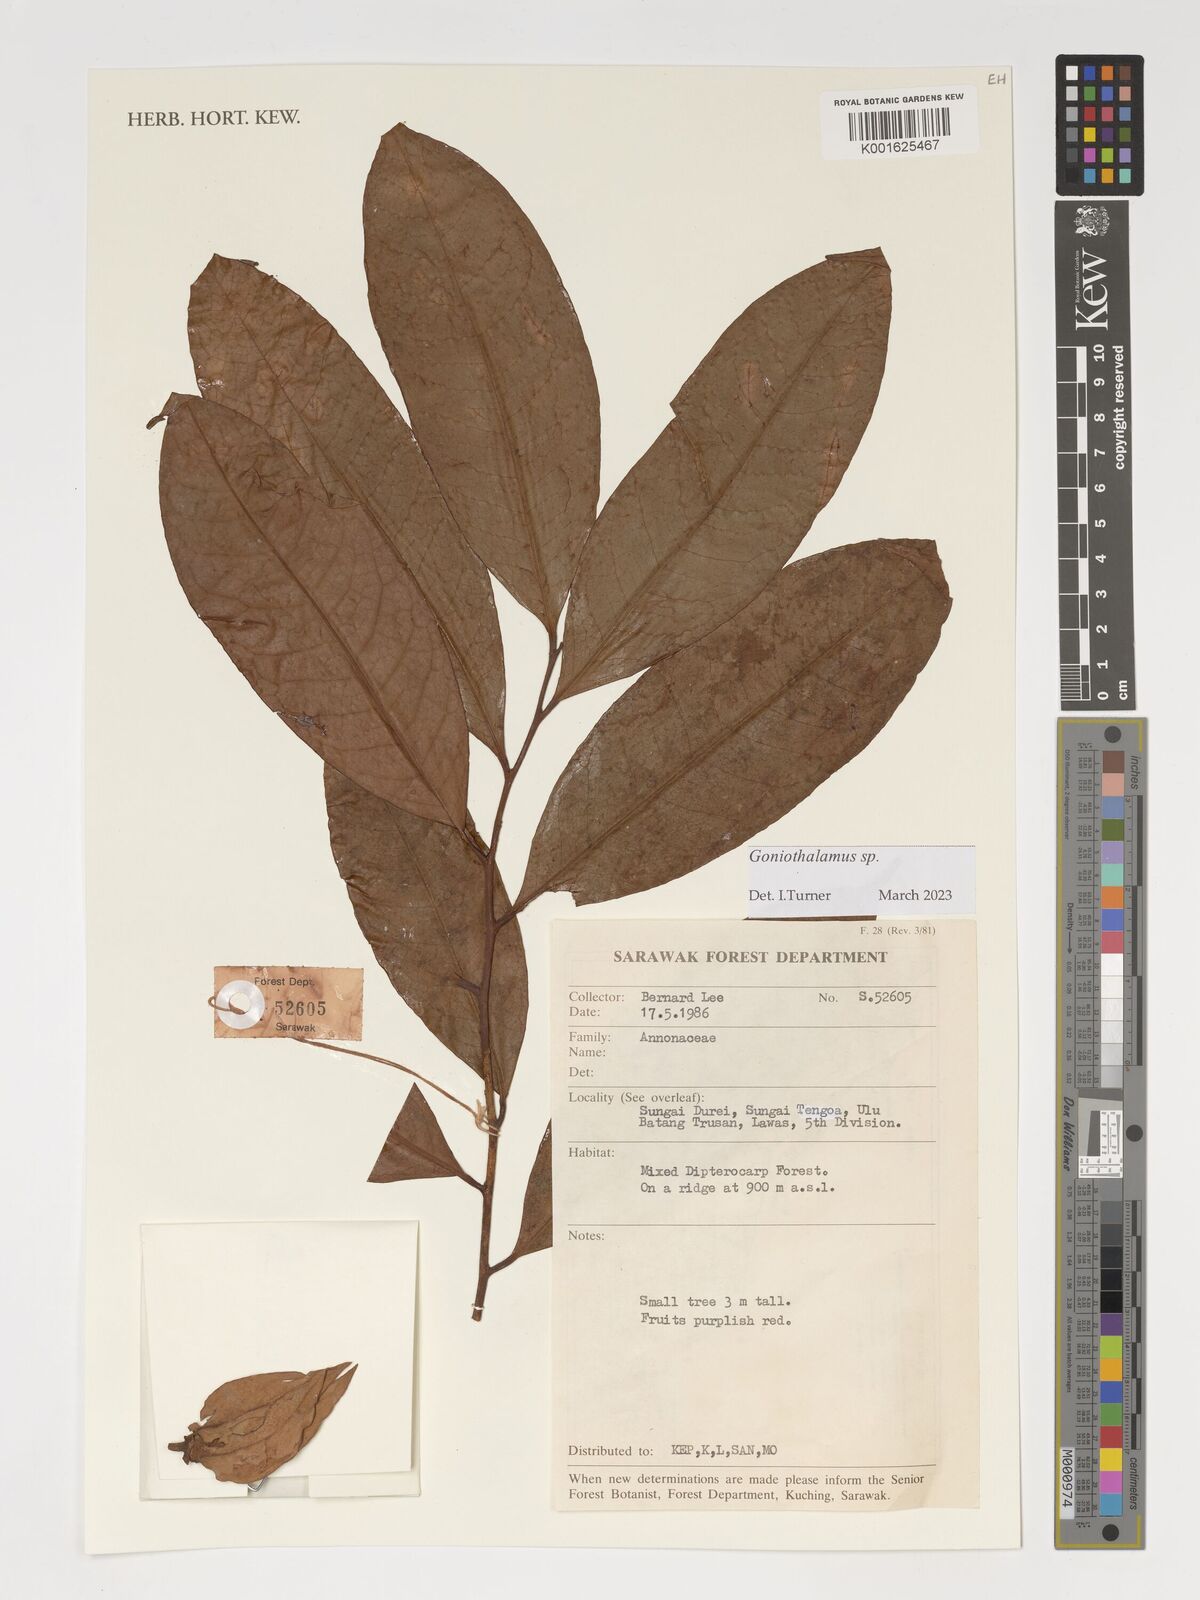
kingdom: Plantae
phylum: Tracheophyta
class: Magnoliopsida
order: Magnoliales
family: Annonaceae
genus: Goniothalamus
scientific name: Goniothalamus
